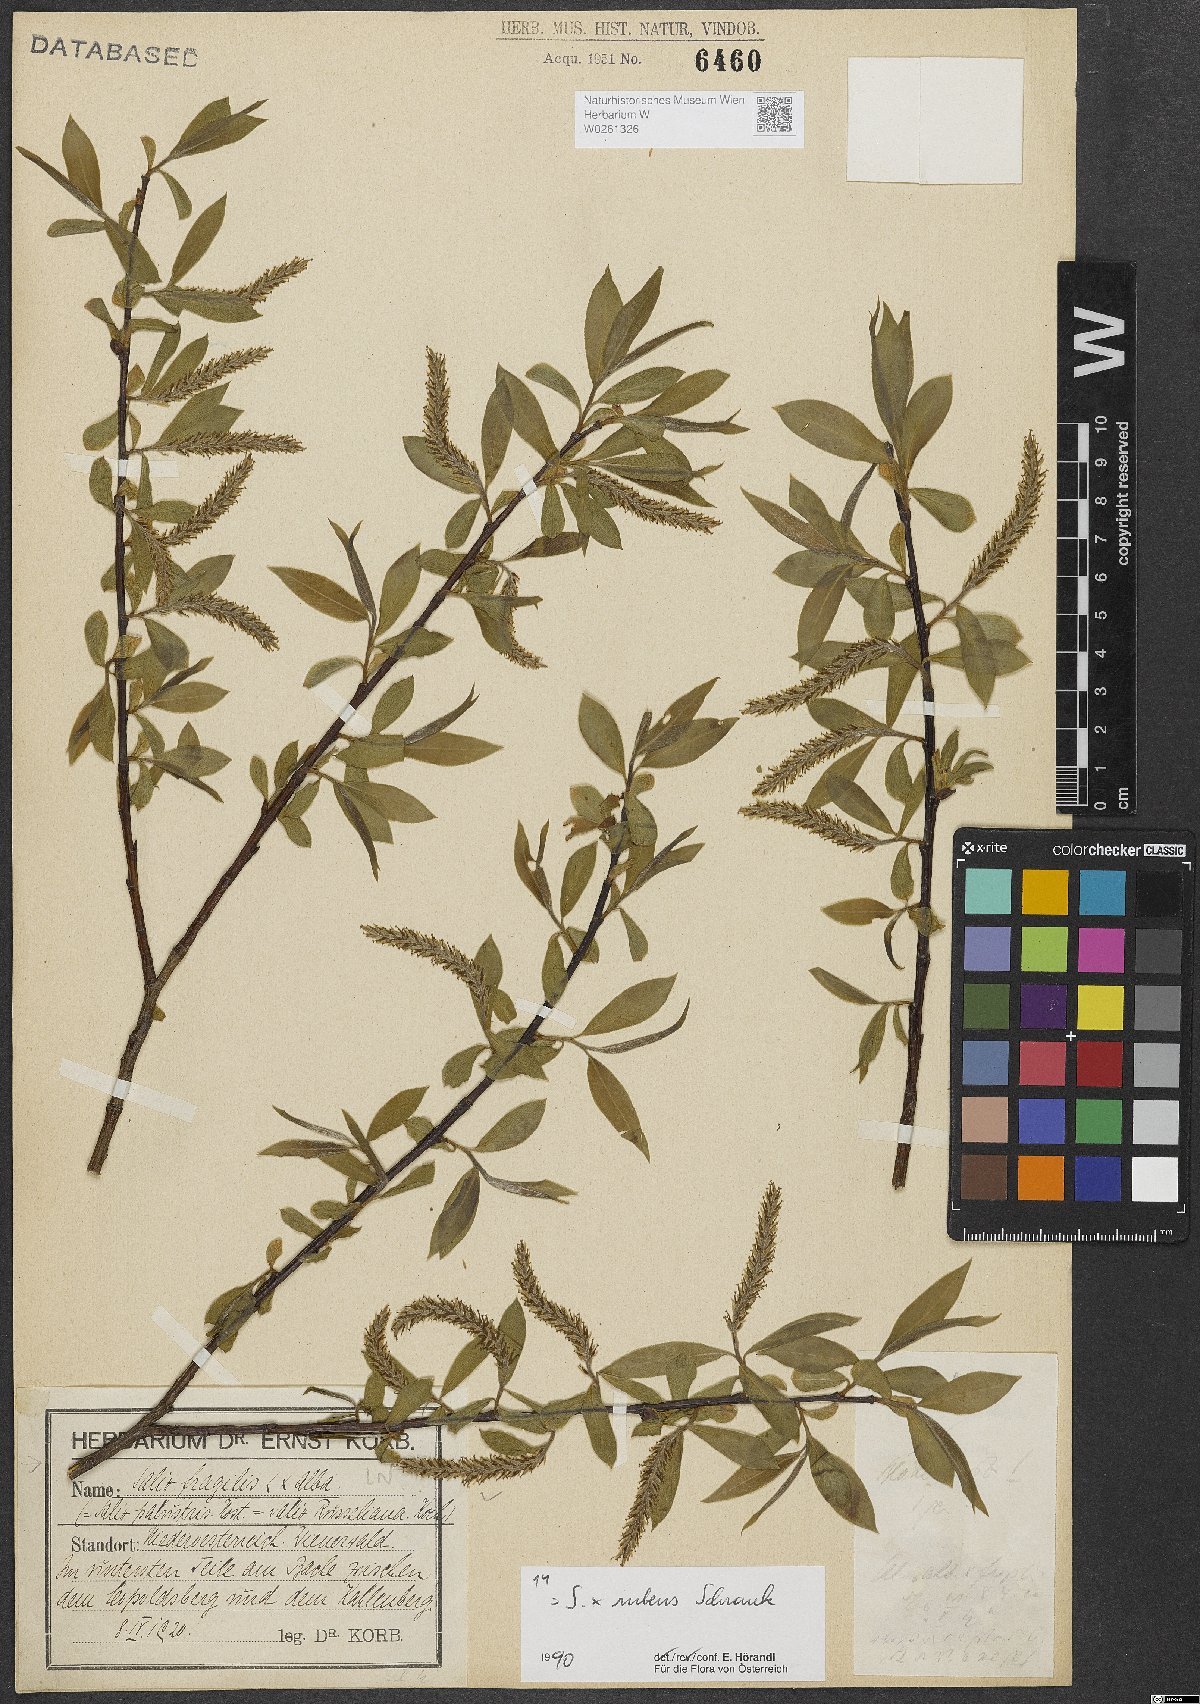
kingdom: Plantae
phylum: Tracheophyta
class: Magnoliopsida
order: Malpighiales
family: Salicaceae
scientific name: Salicaceae
